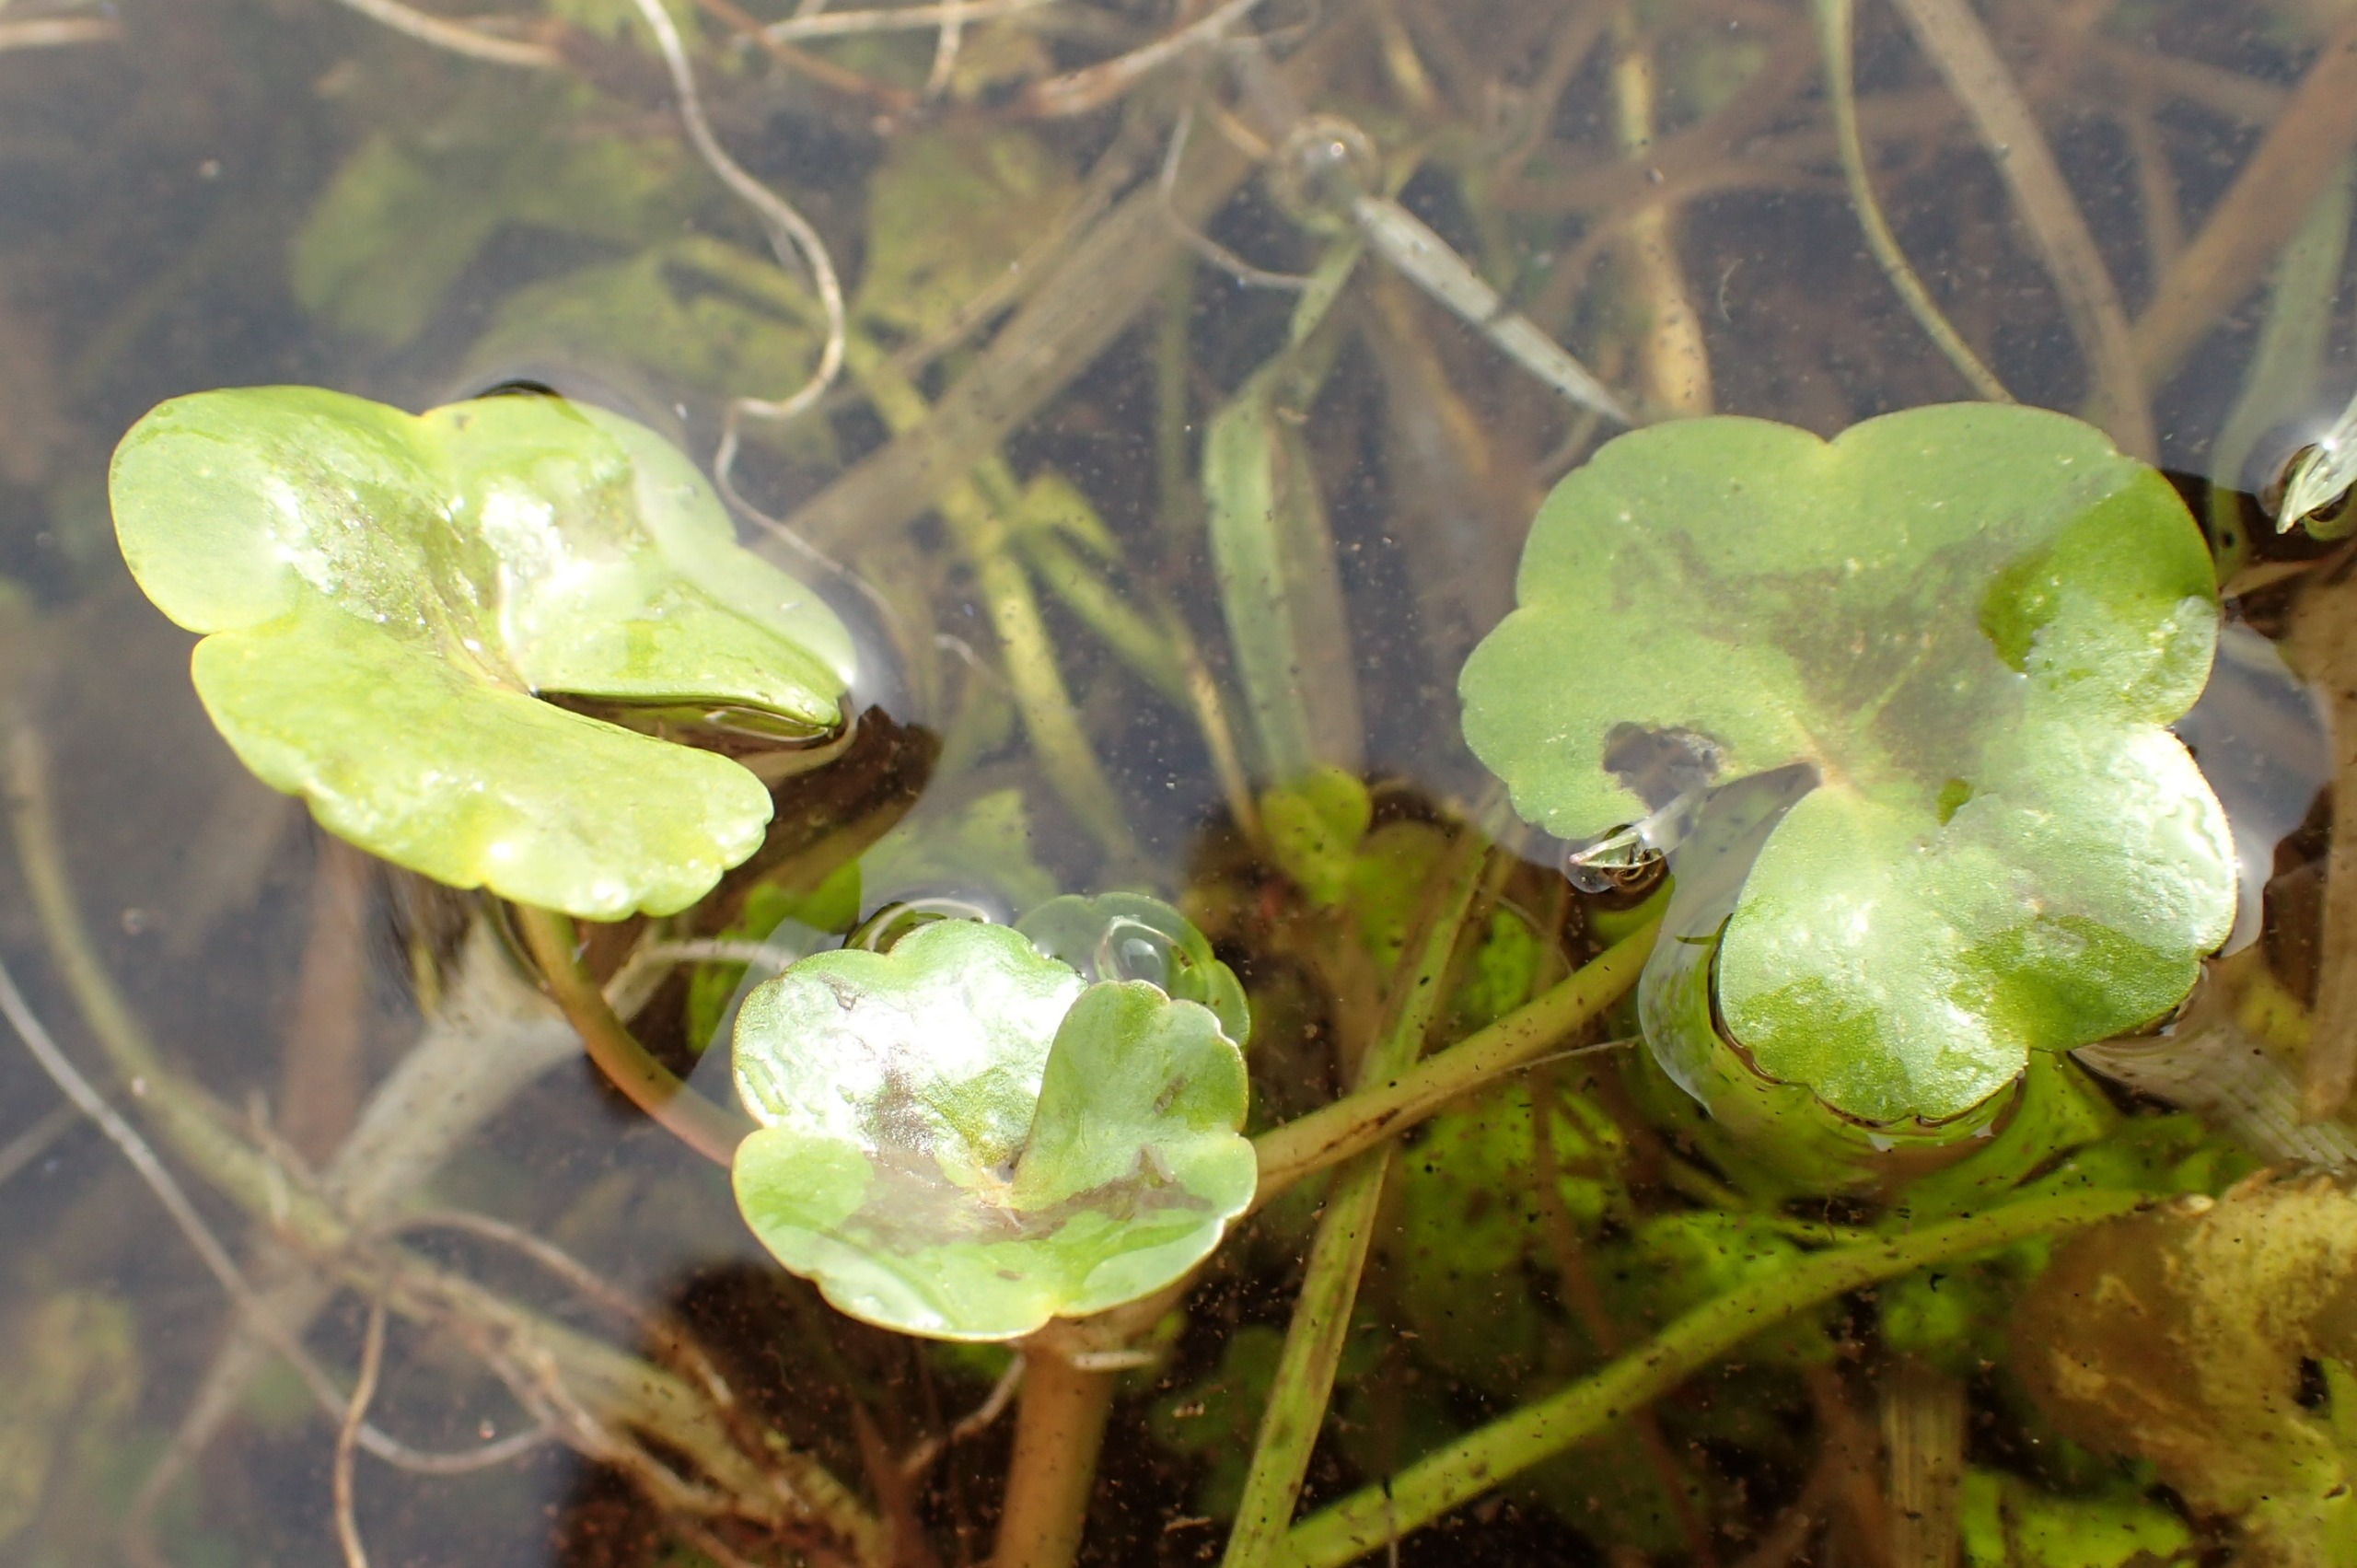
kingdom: Plantae
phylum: Tracheophyta
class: Magnoliopsida
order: Ranunculales
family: Ranunculaceae
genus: Ranunculus
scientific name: Ranunculus hederaceus
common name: Vedbend-vandranunkel
